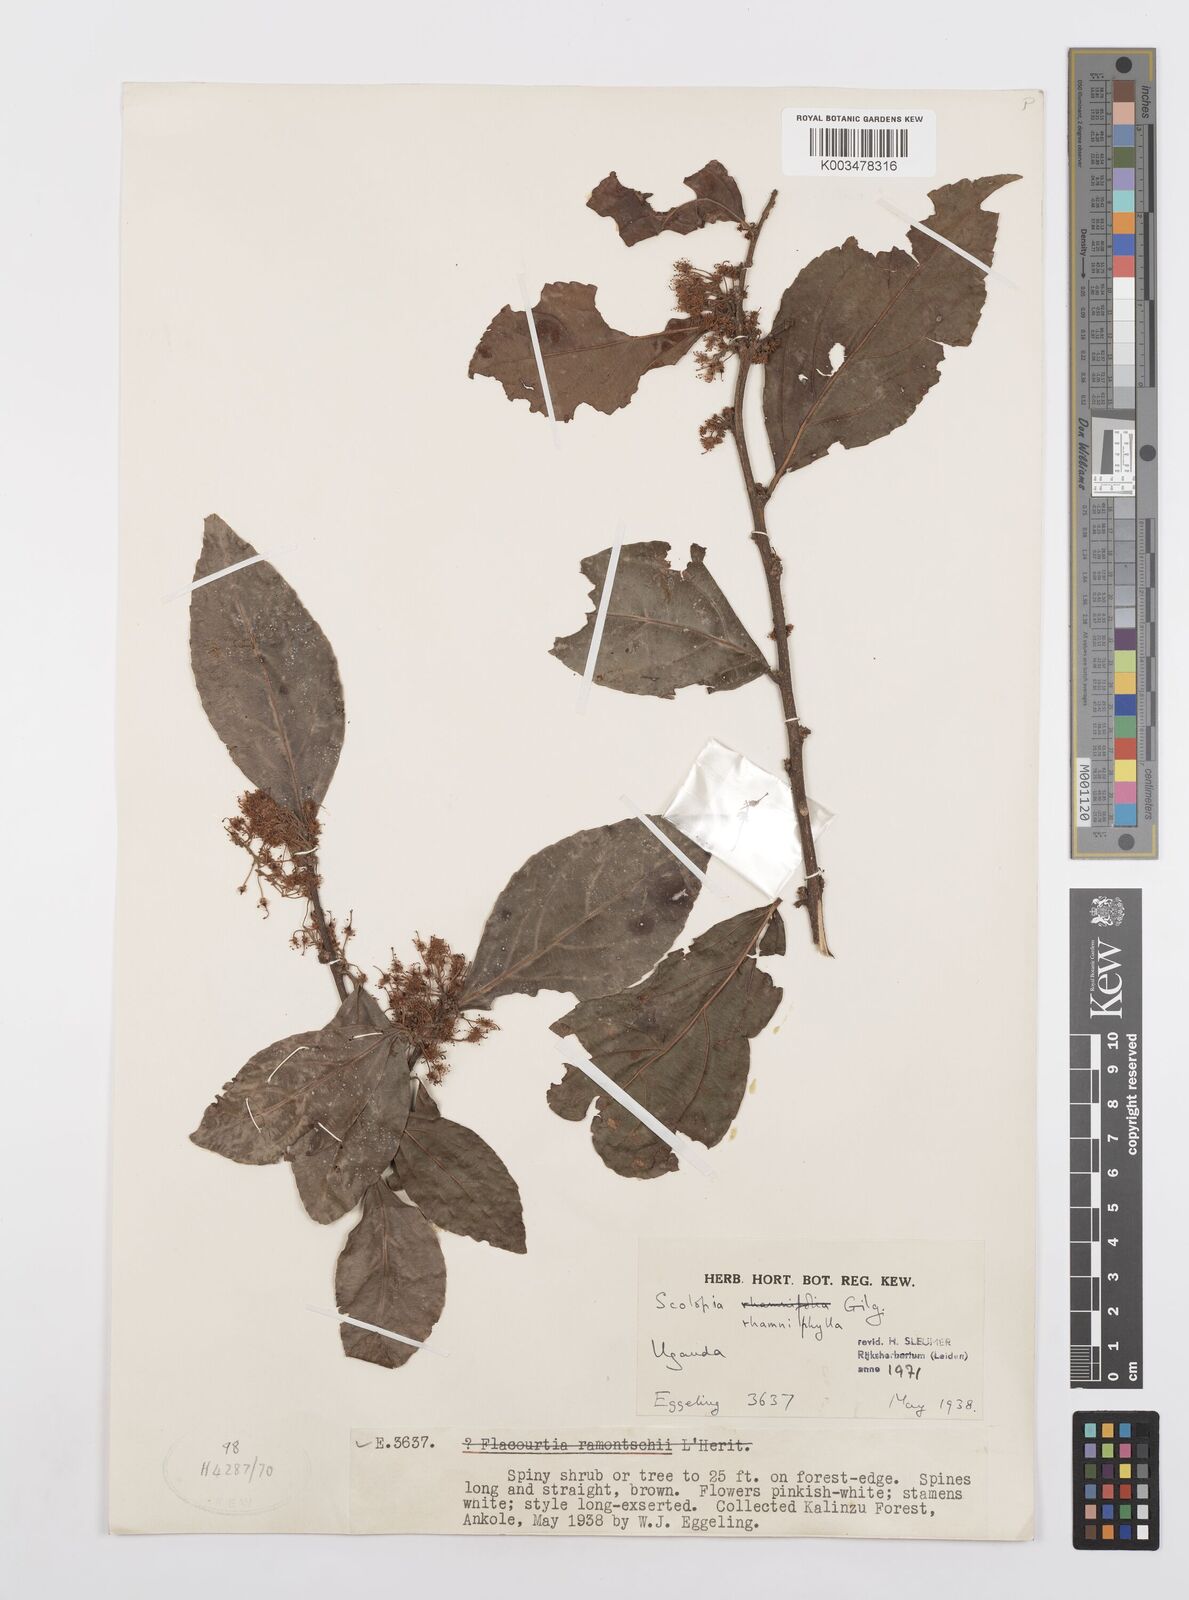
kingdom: Plantae
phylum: Tracheophyta
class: Magnoliopsida
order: Malpighiales
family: Salicaceae
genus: Scolopia
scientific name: Scolopia rhamniphylla
